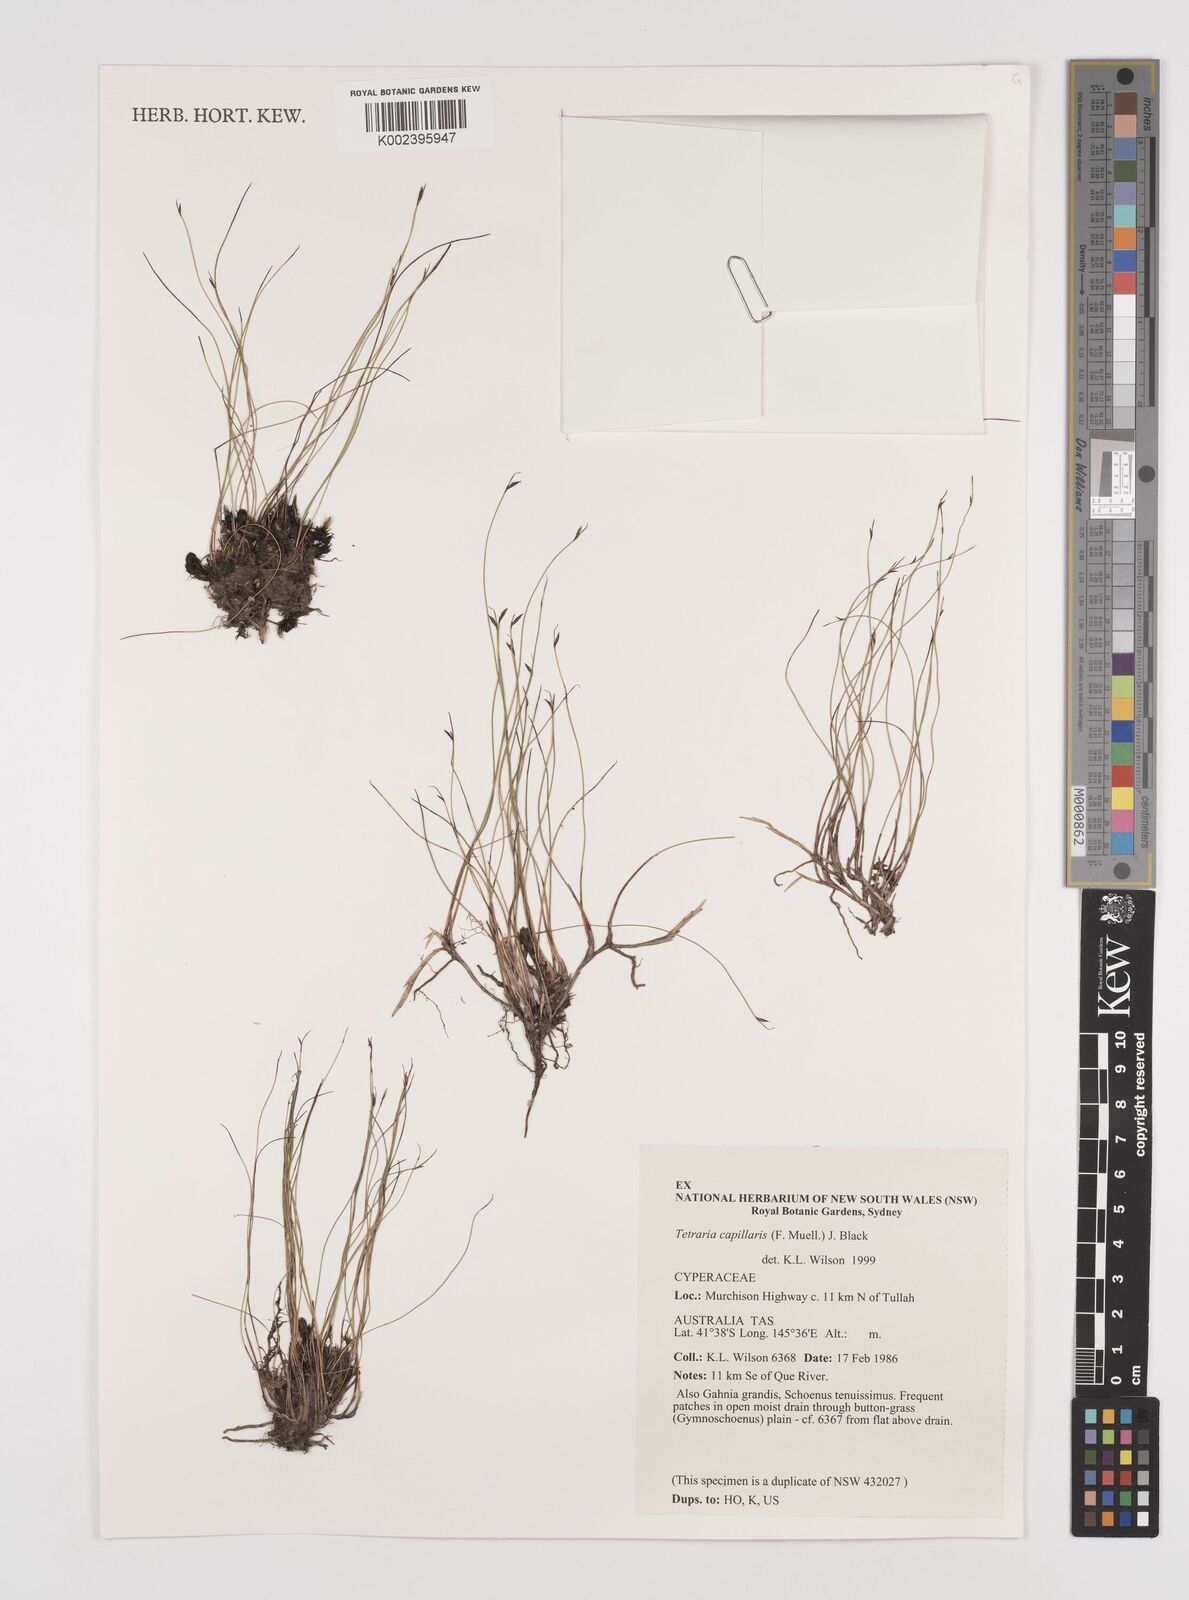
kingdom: Plantae
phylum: Tracheophyta
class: Liliopsida
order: Poales
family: Cyperaceae
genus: Tetraria
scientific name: Tetraria capillaris
